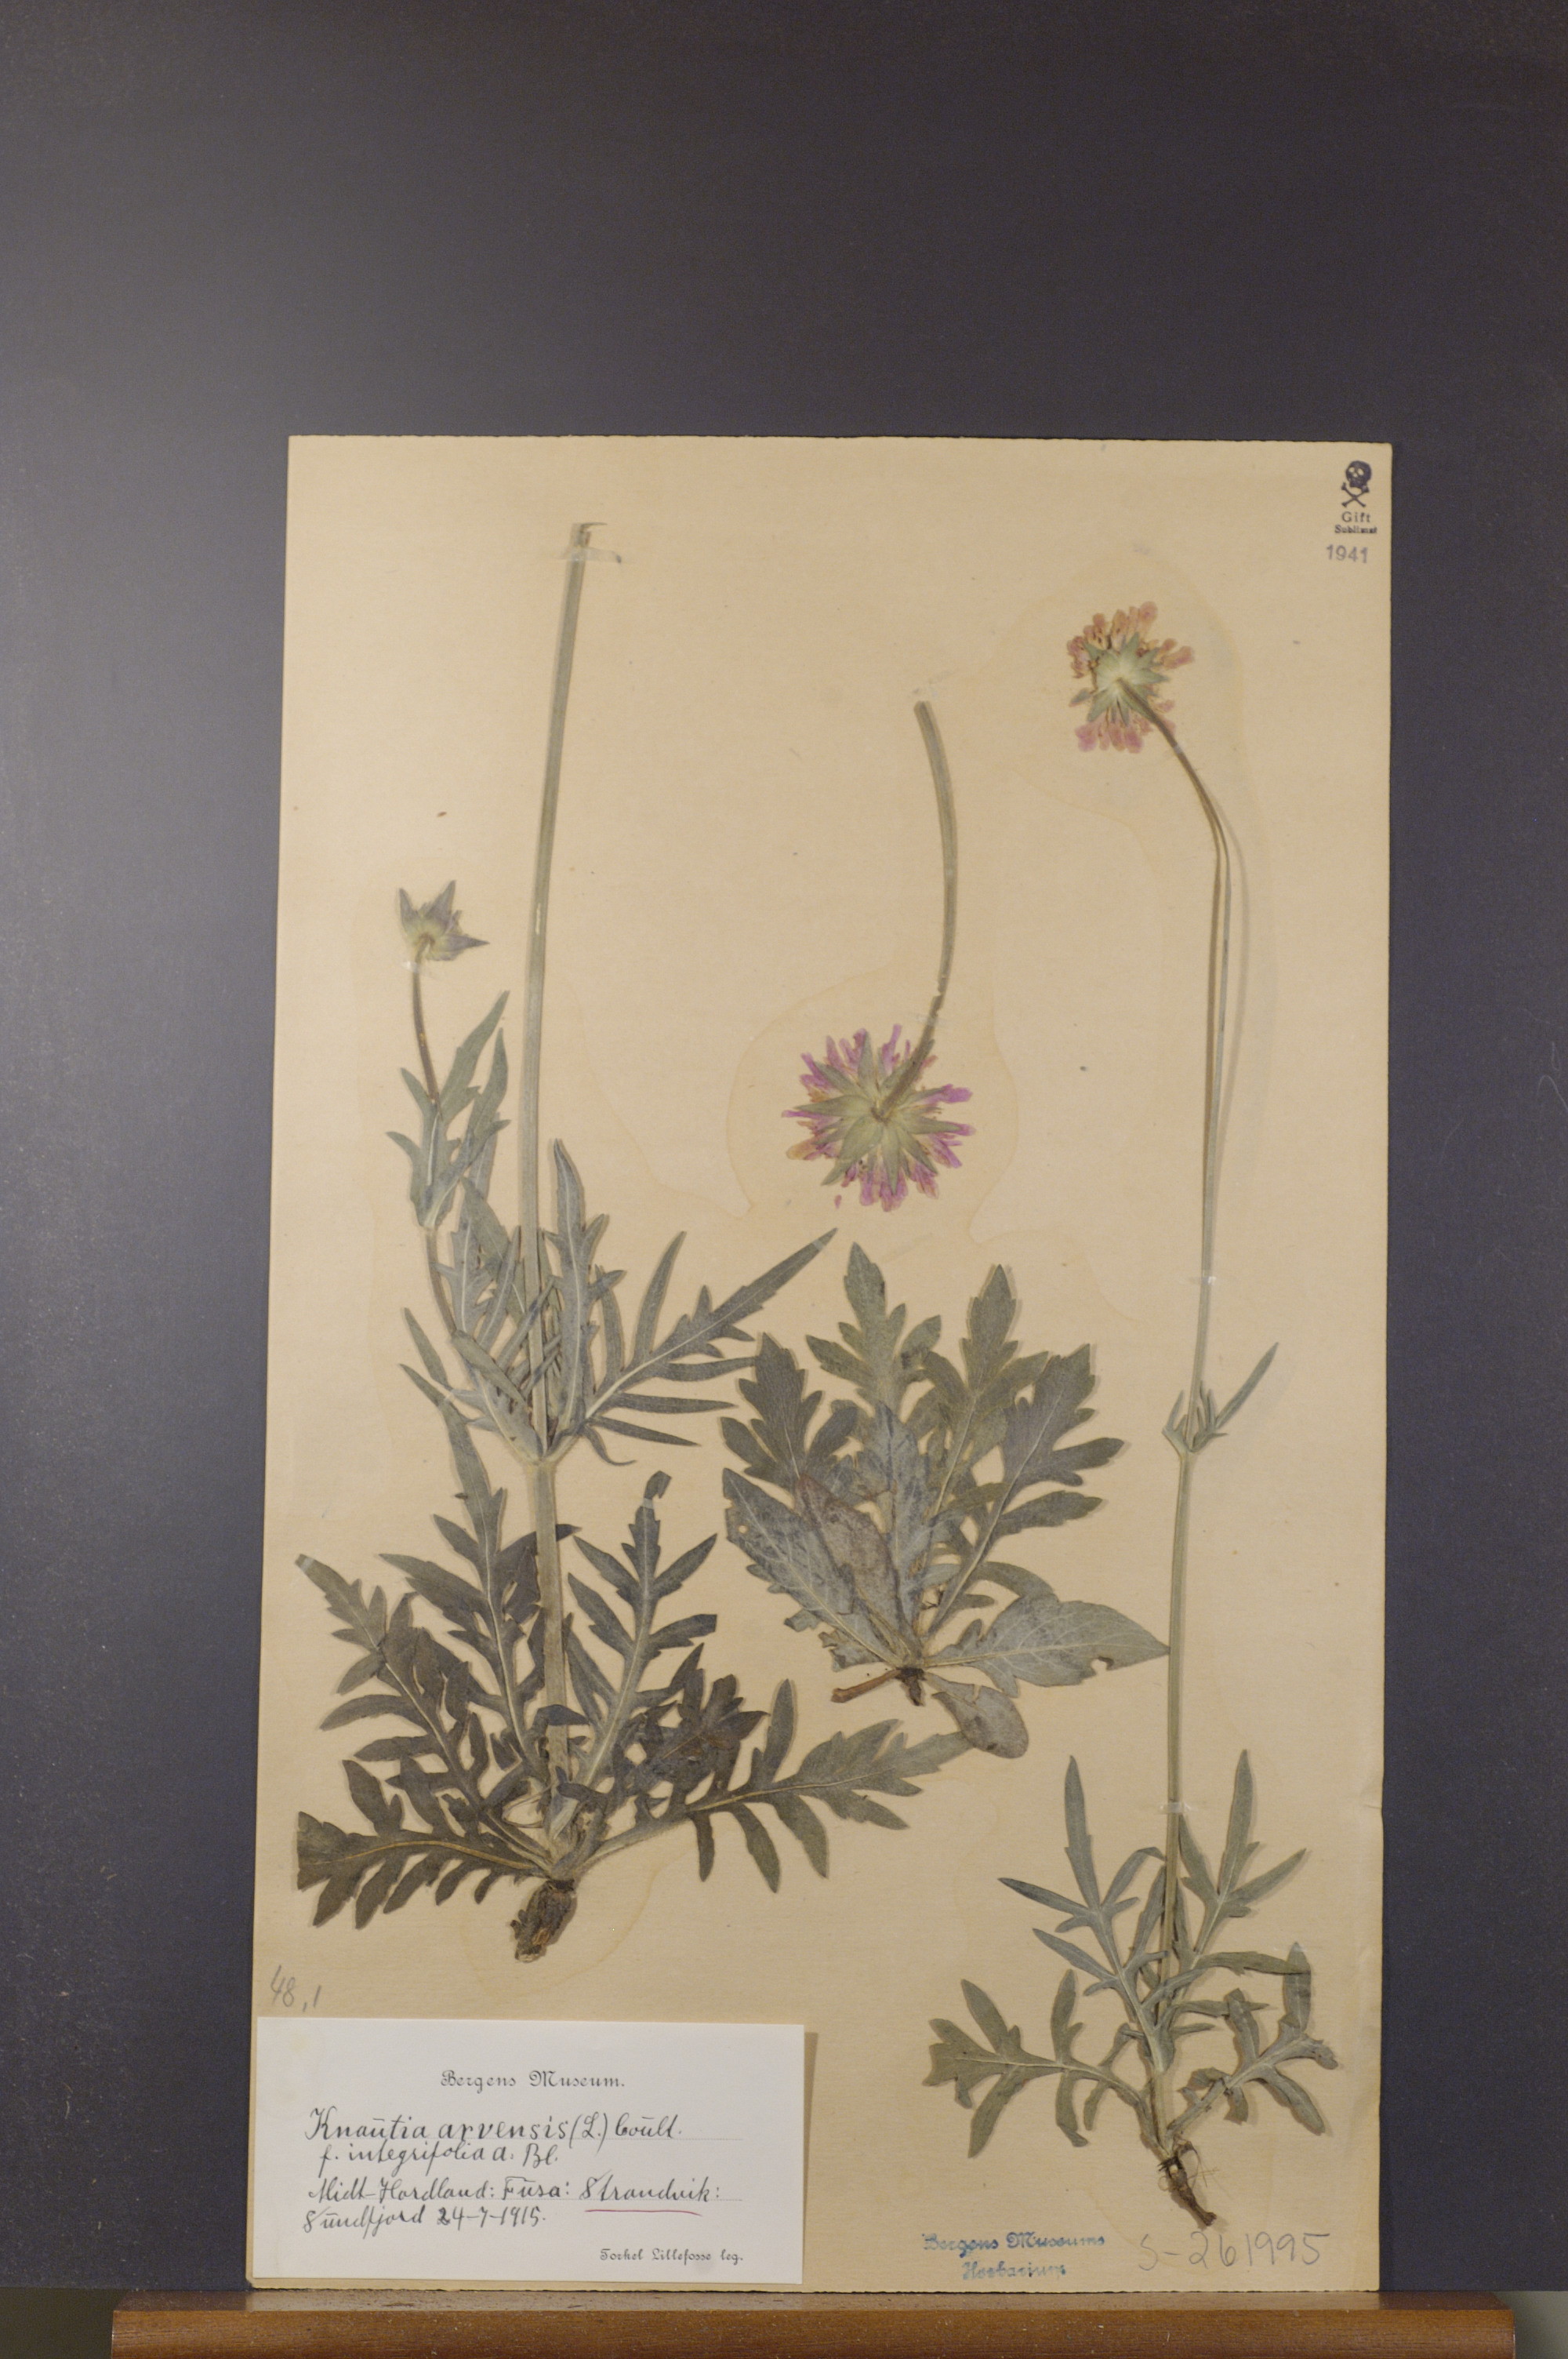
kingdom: Plantae
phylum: Tracheophyta
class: Magnoliopsida
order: Dipsacales
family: Caprifoliaceae
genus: Knautia
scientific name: Knautia arvensis
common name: Field scabiosa
